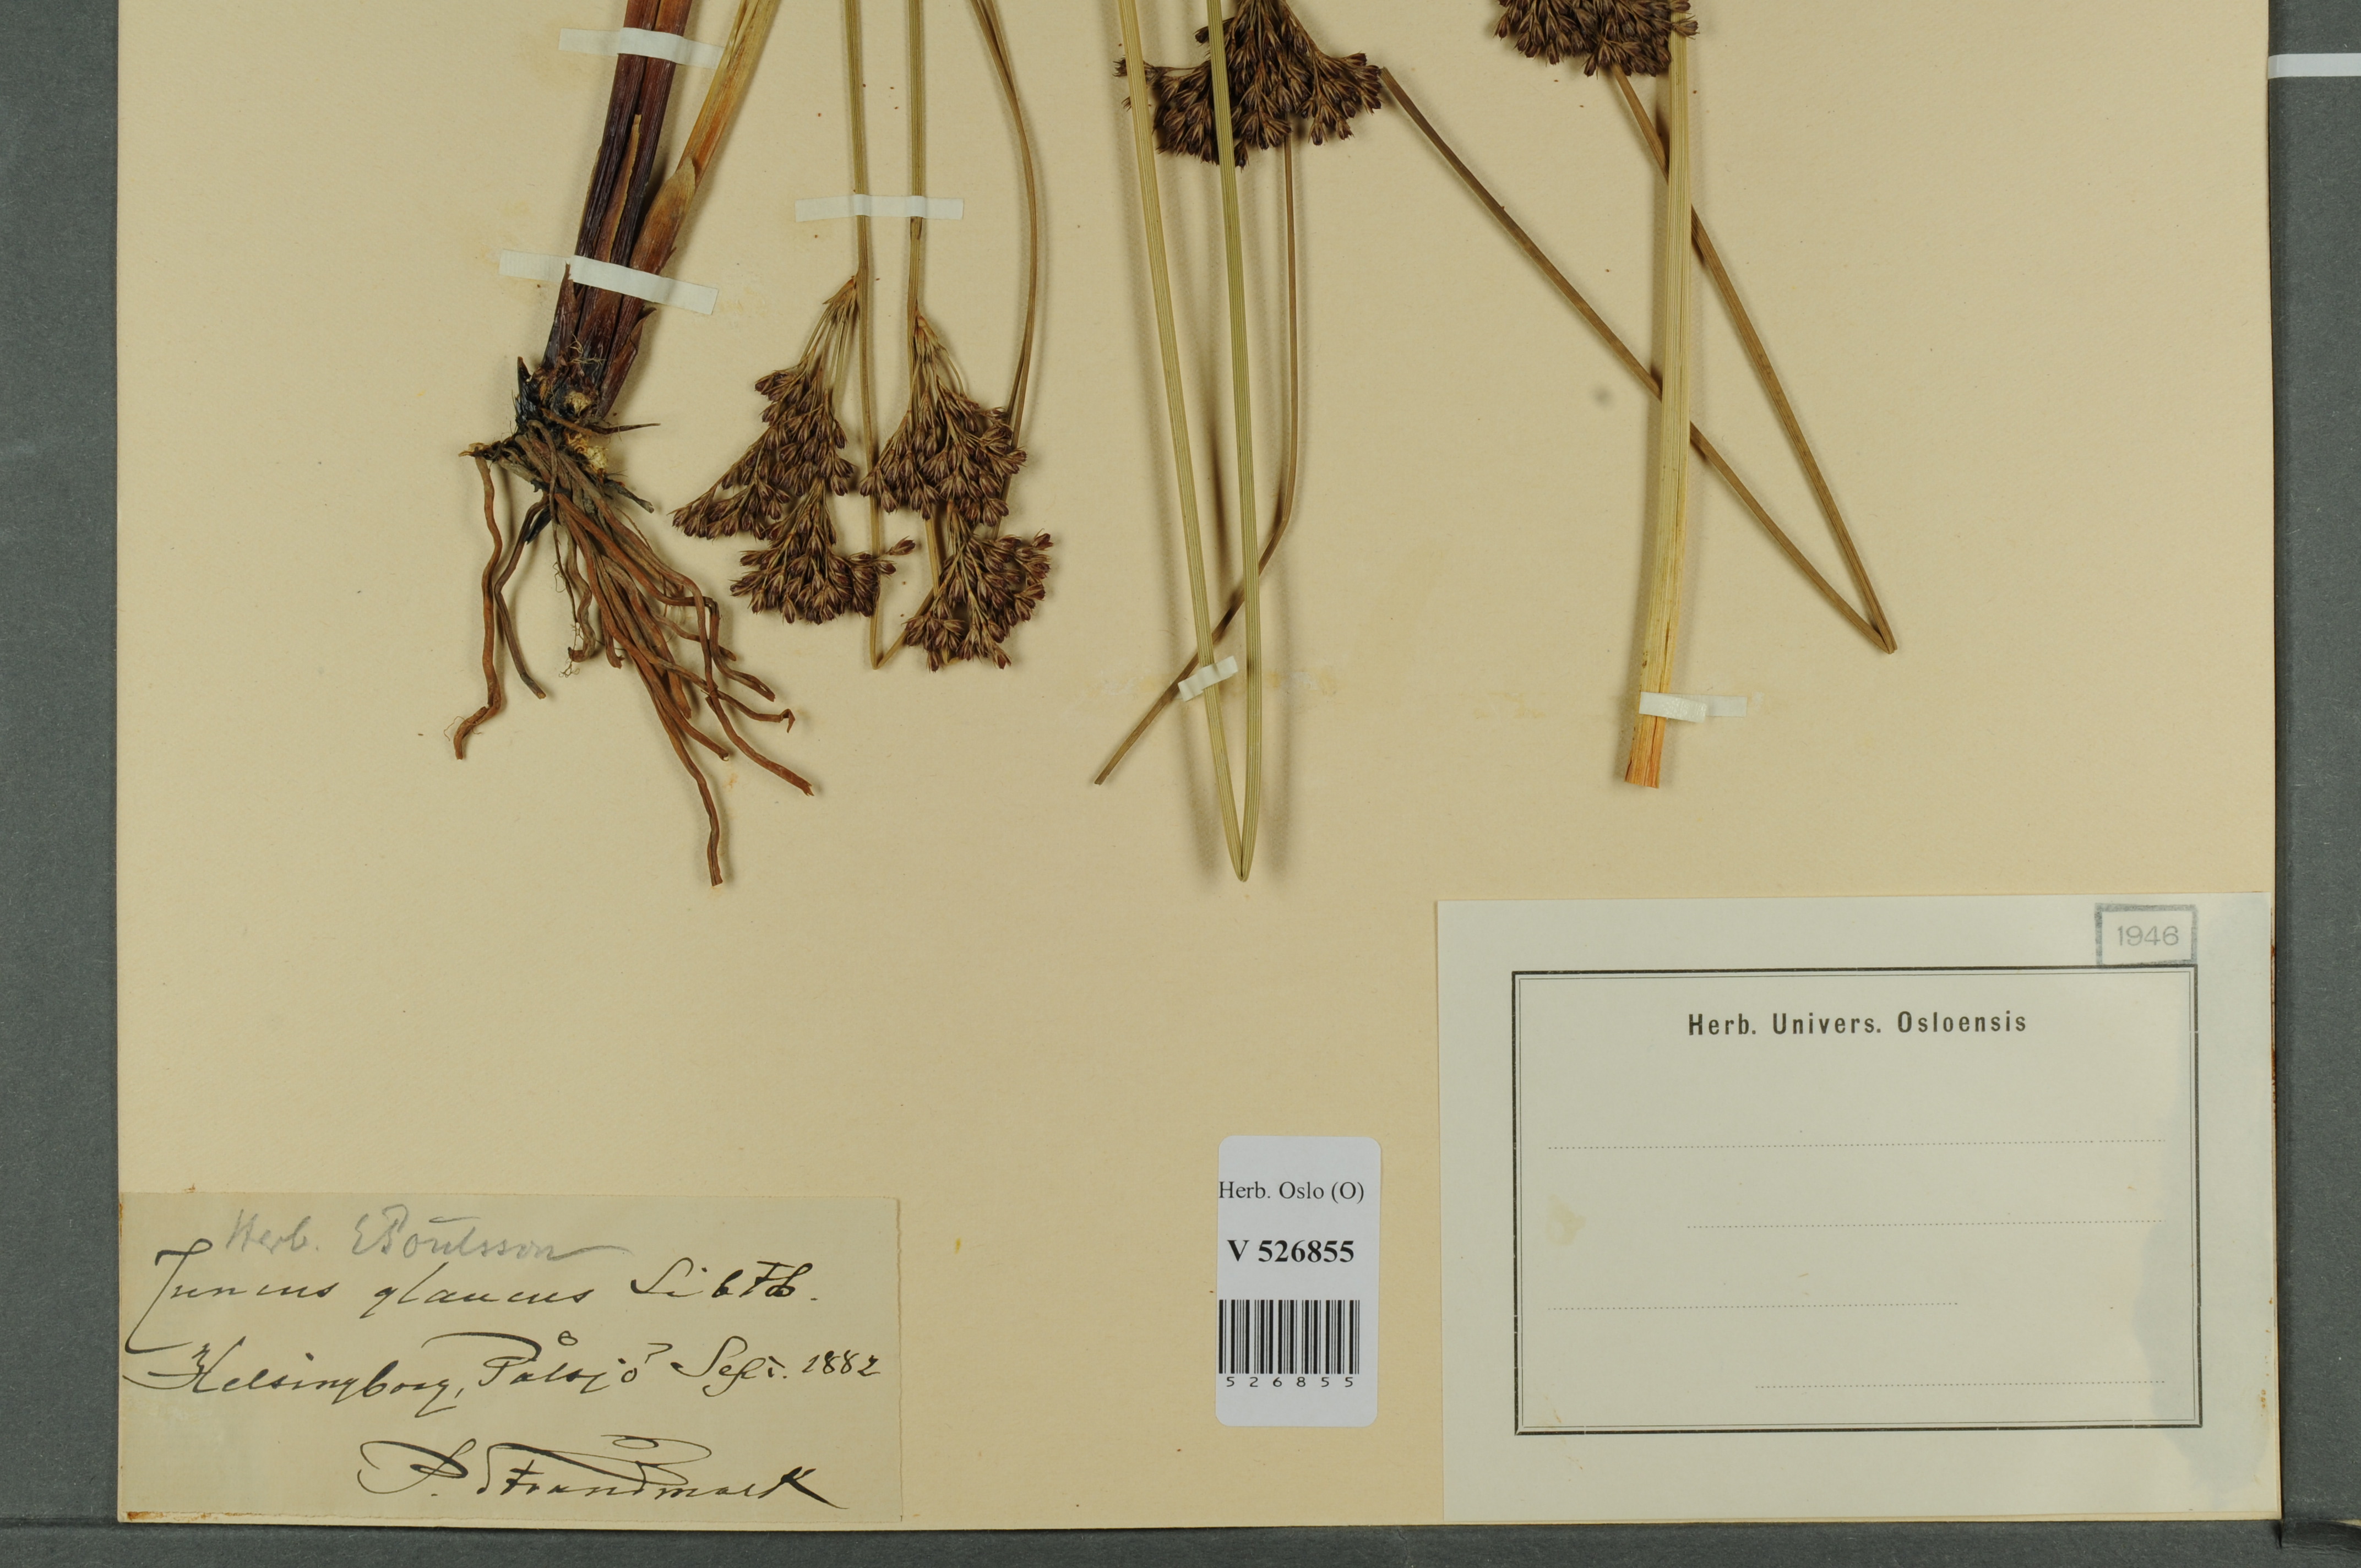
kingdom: Plantae
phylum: Tracheophyta
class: Liliopsida
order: Poales
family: Juncaceae
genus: Juncus
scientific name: Juncus inflexus
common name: Hard rush
